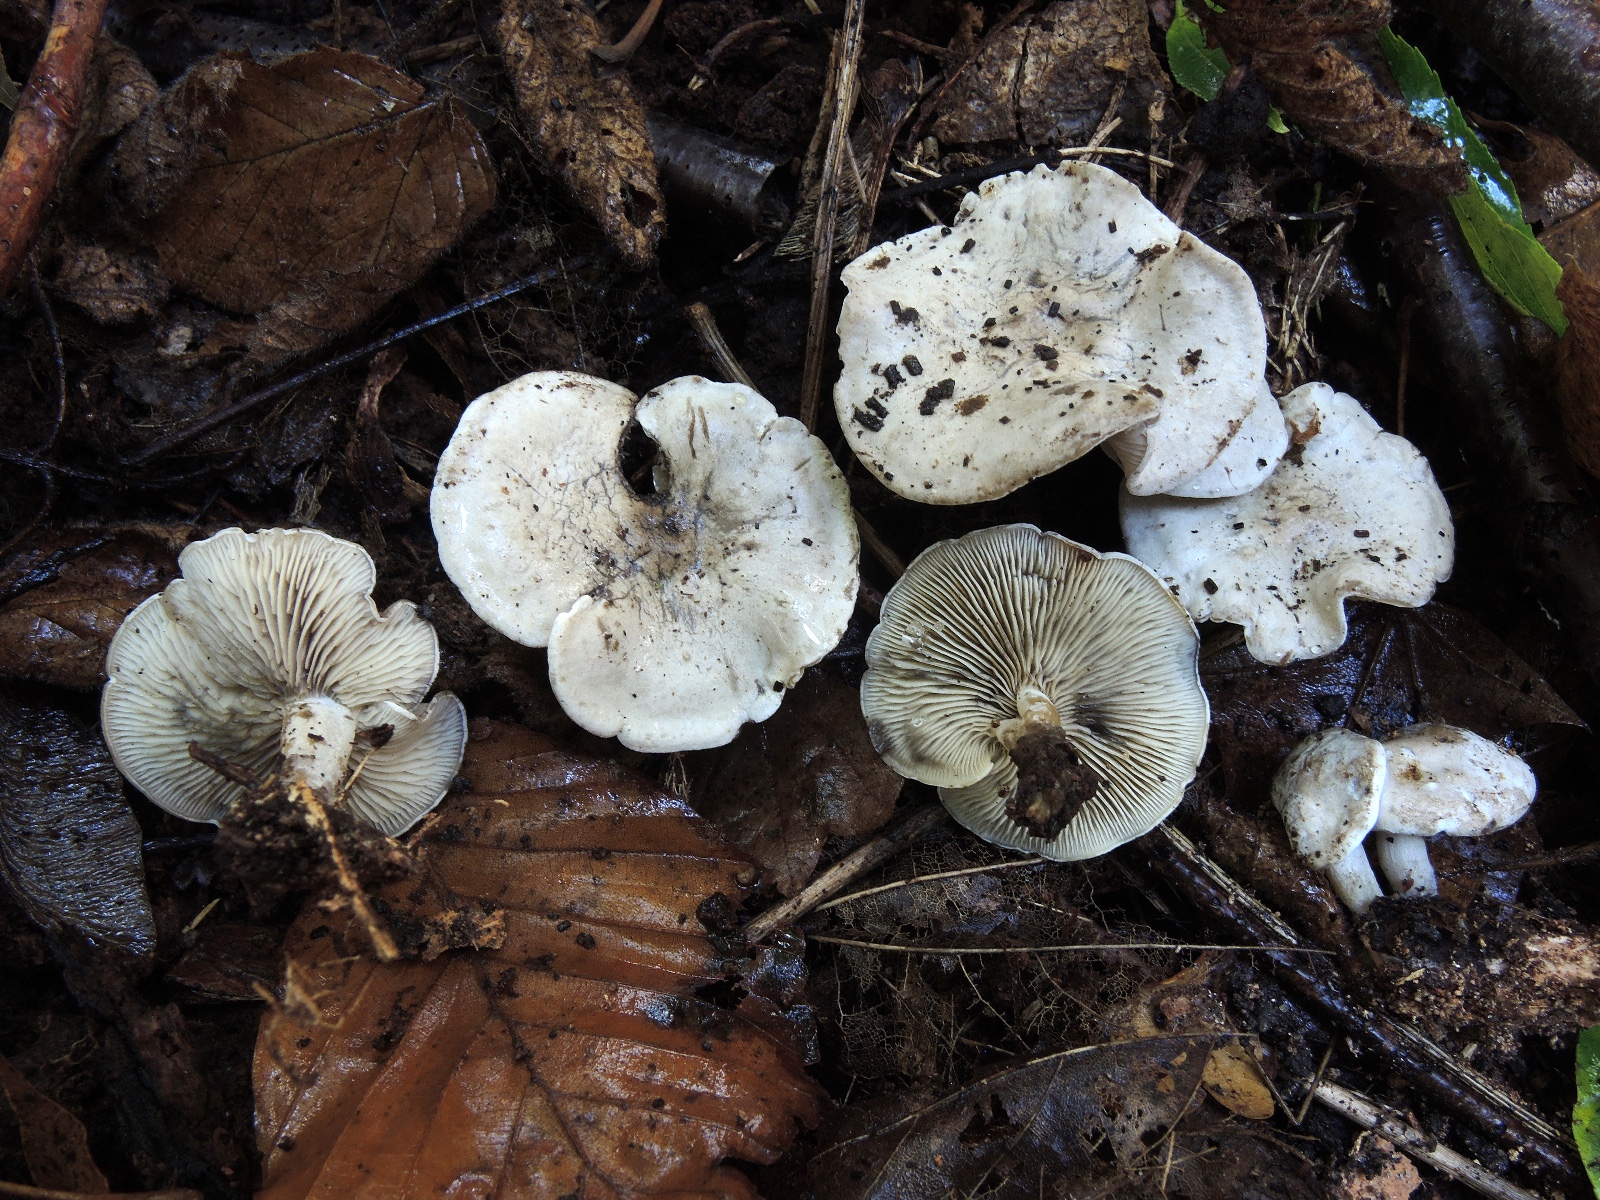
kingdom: Fungi
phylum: Basidiomycota
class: Agaricomycetes
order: Agaricales
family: Lyophyllaceae
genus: Tephrocybella
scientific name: Tephrocybella griseonigrescens
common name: grånende fagerhat
